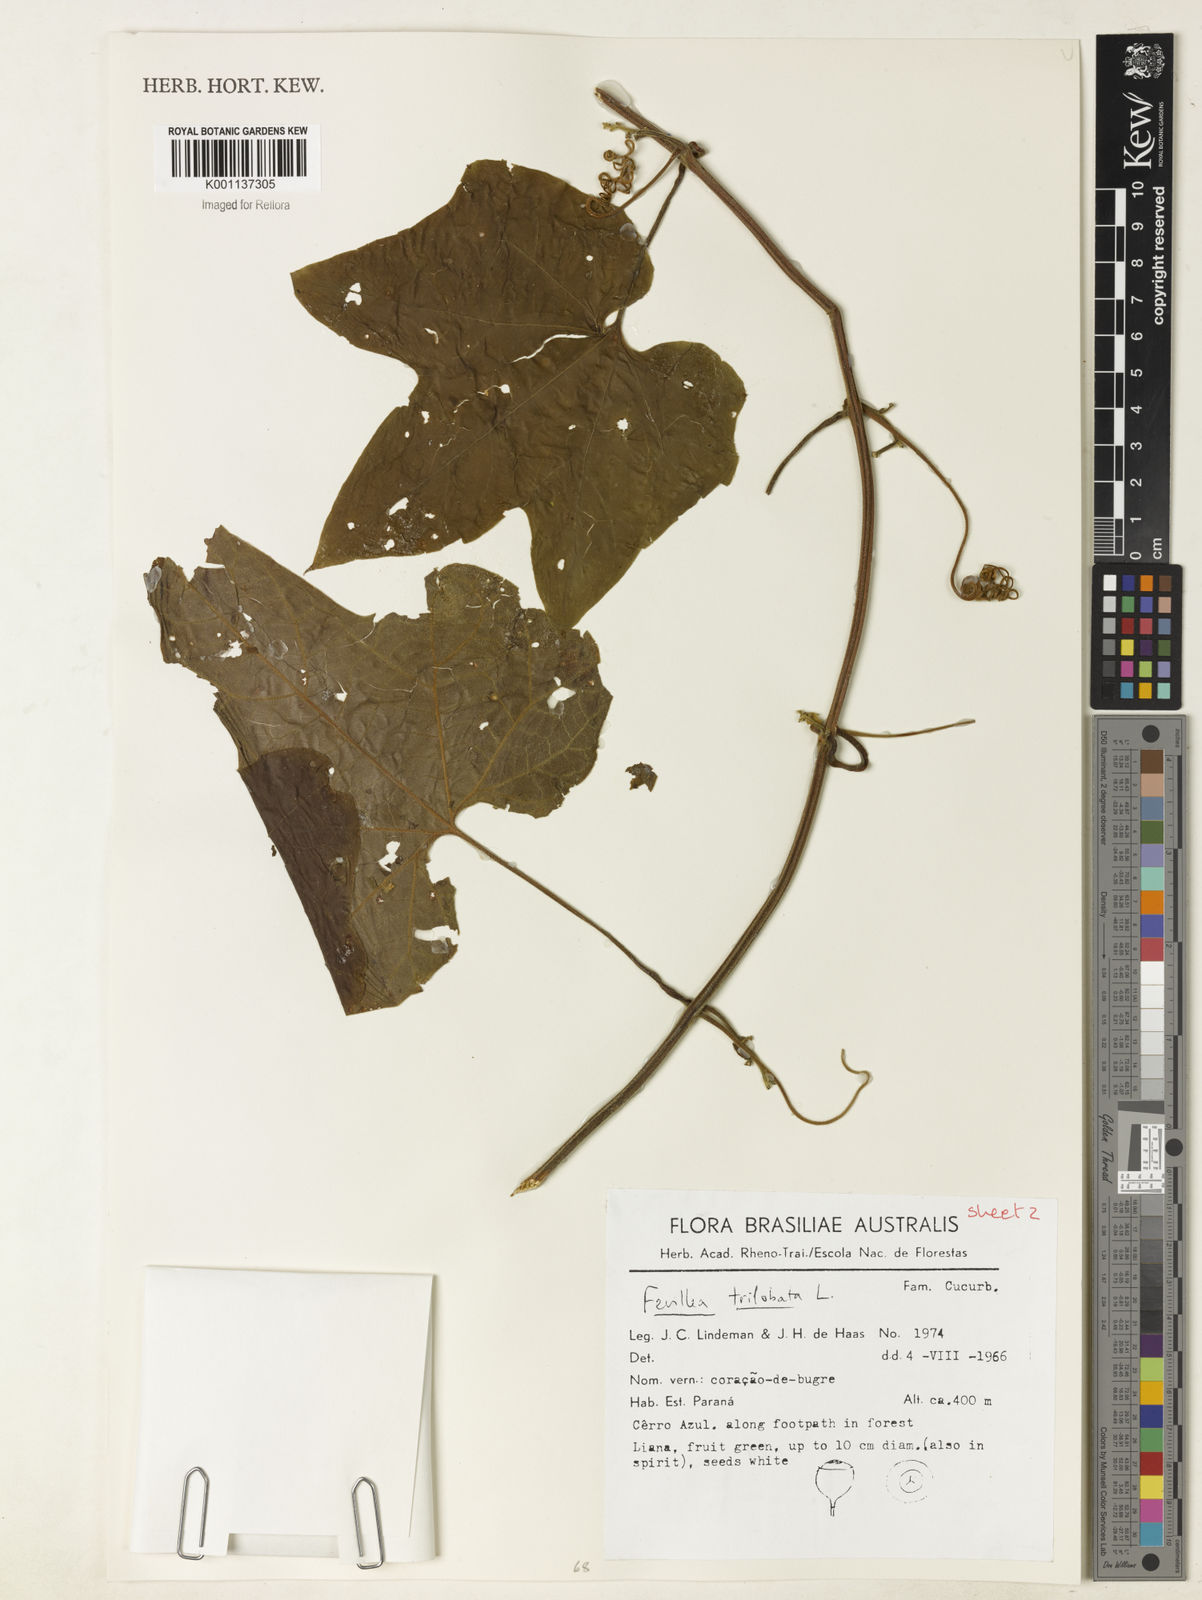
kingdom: Plantae
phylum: Tracheophyta
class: Magnoliopsida
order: Cucurbitales
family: Cucurbitaceae
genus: Fevillea
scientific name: Fevillea trilobata
